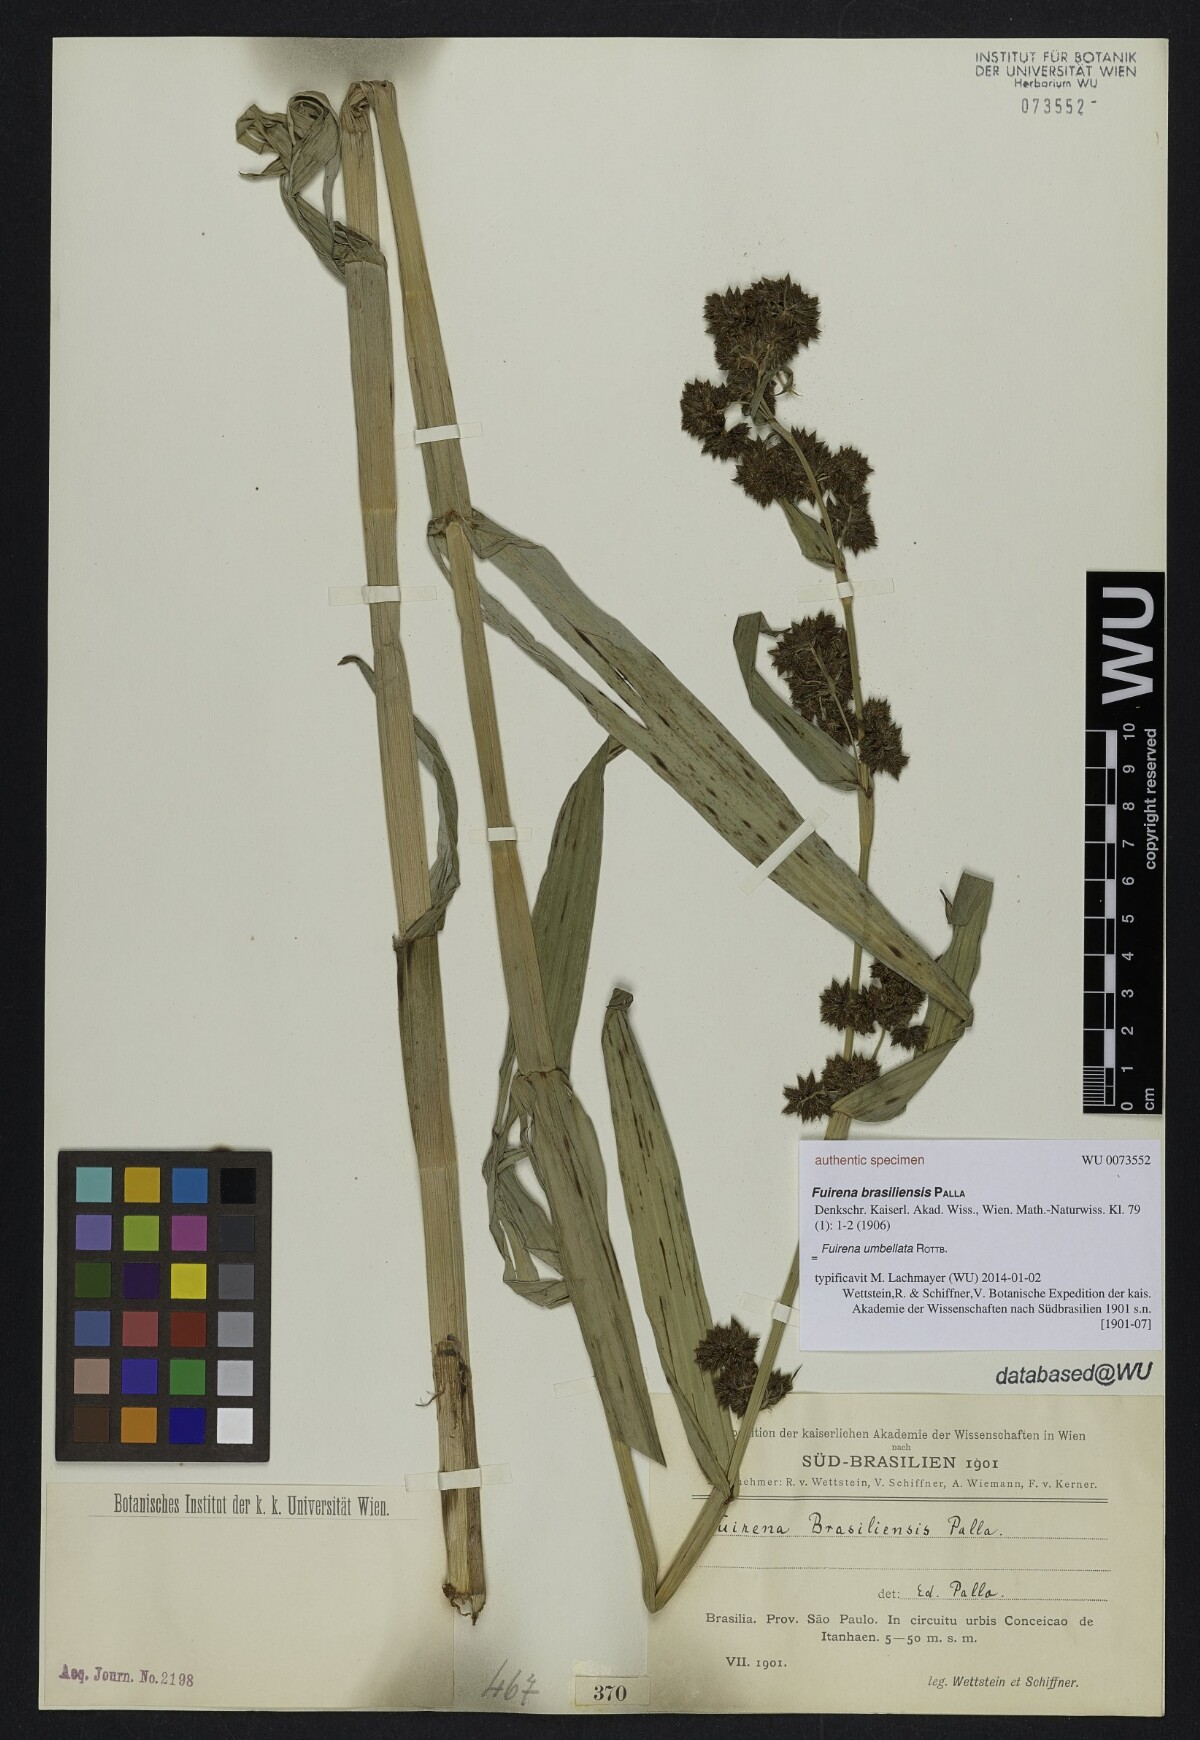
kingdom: Plantae
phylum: Tracheophyta
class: Liliopsida
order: Poales
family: Cyperaceae
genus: Fuirena
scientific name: Fuirena umbellata
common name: Yefen
